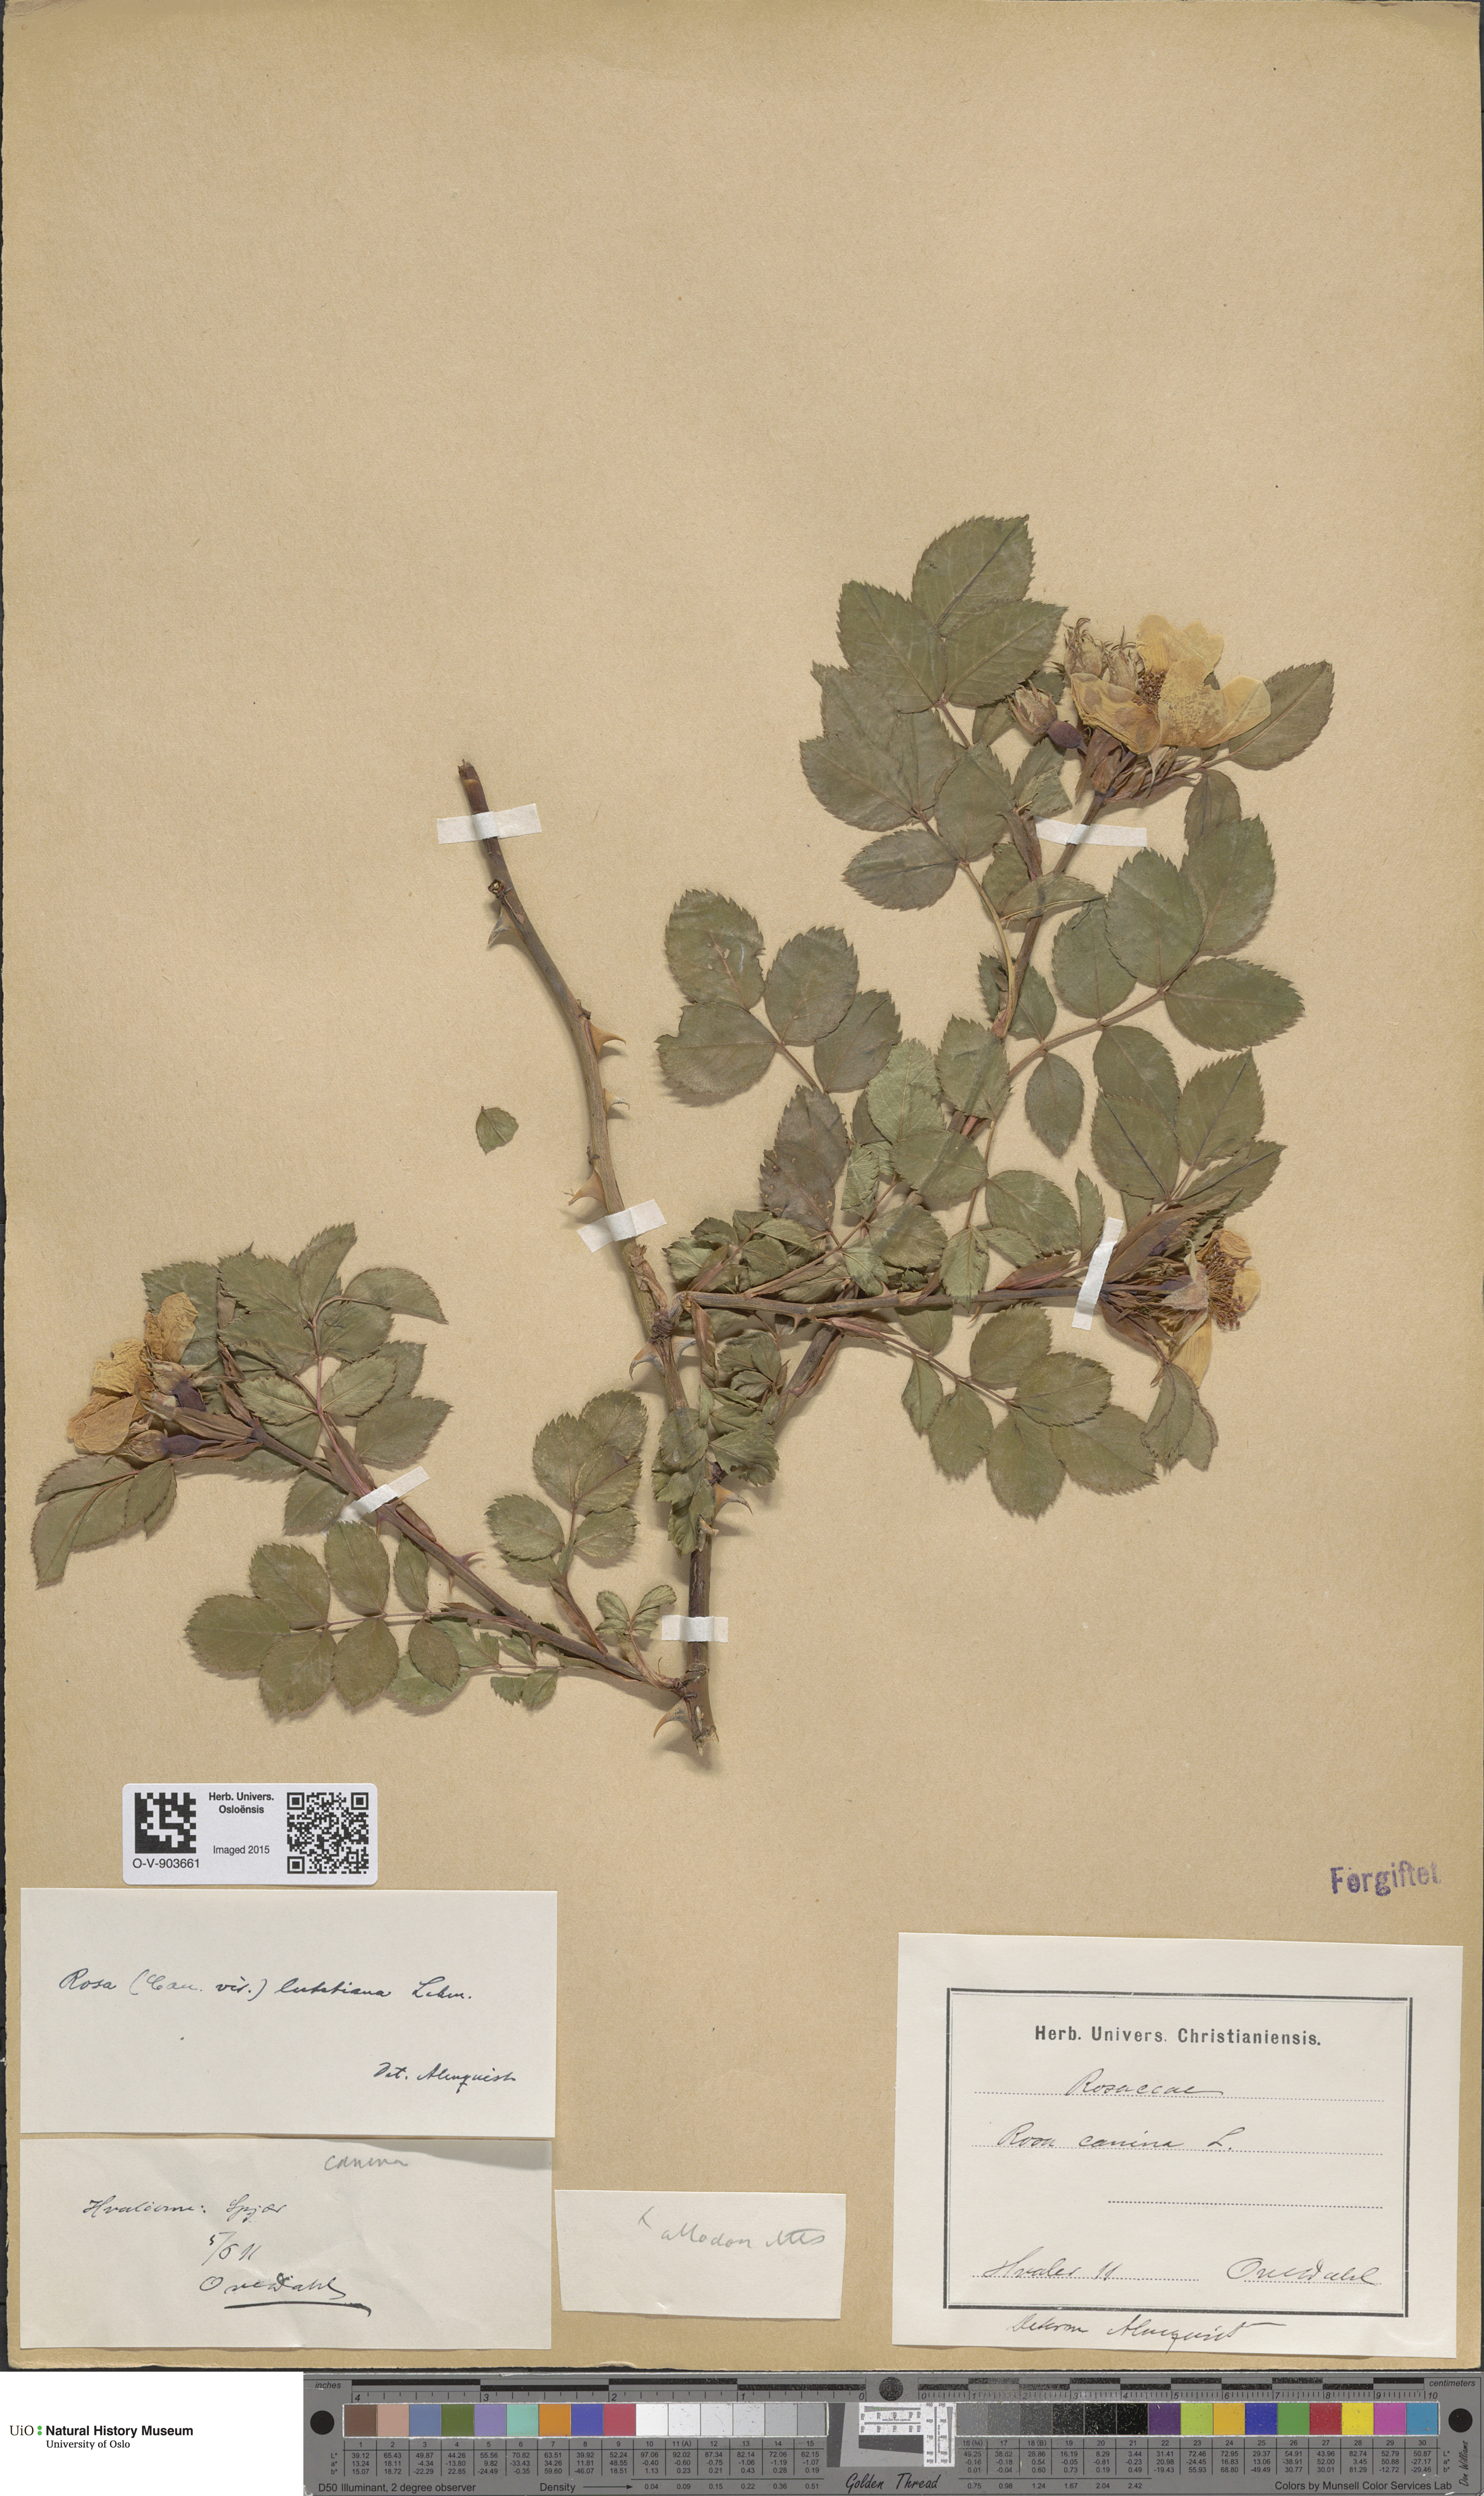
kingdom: Plantae
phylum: Tracheophyta
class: Magnoliopsida
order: Rosales
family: Rosaceae
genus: Rosa
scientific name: Rosa canina
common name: Dog rose
